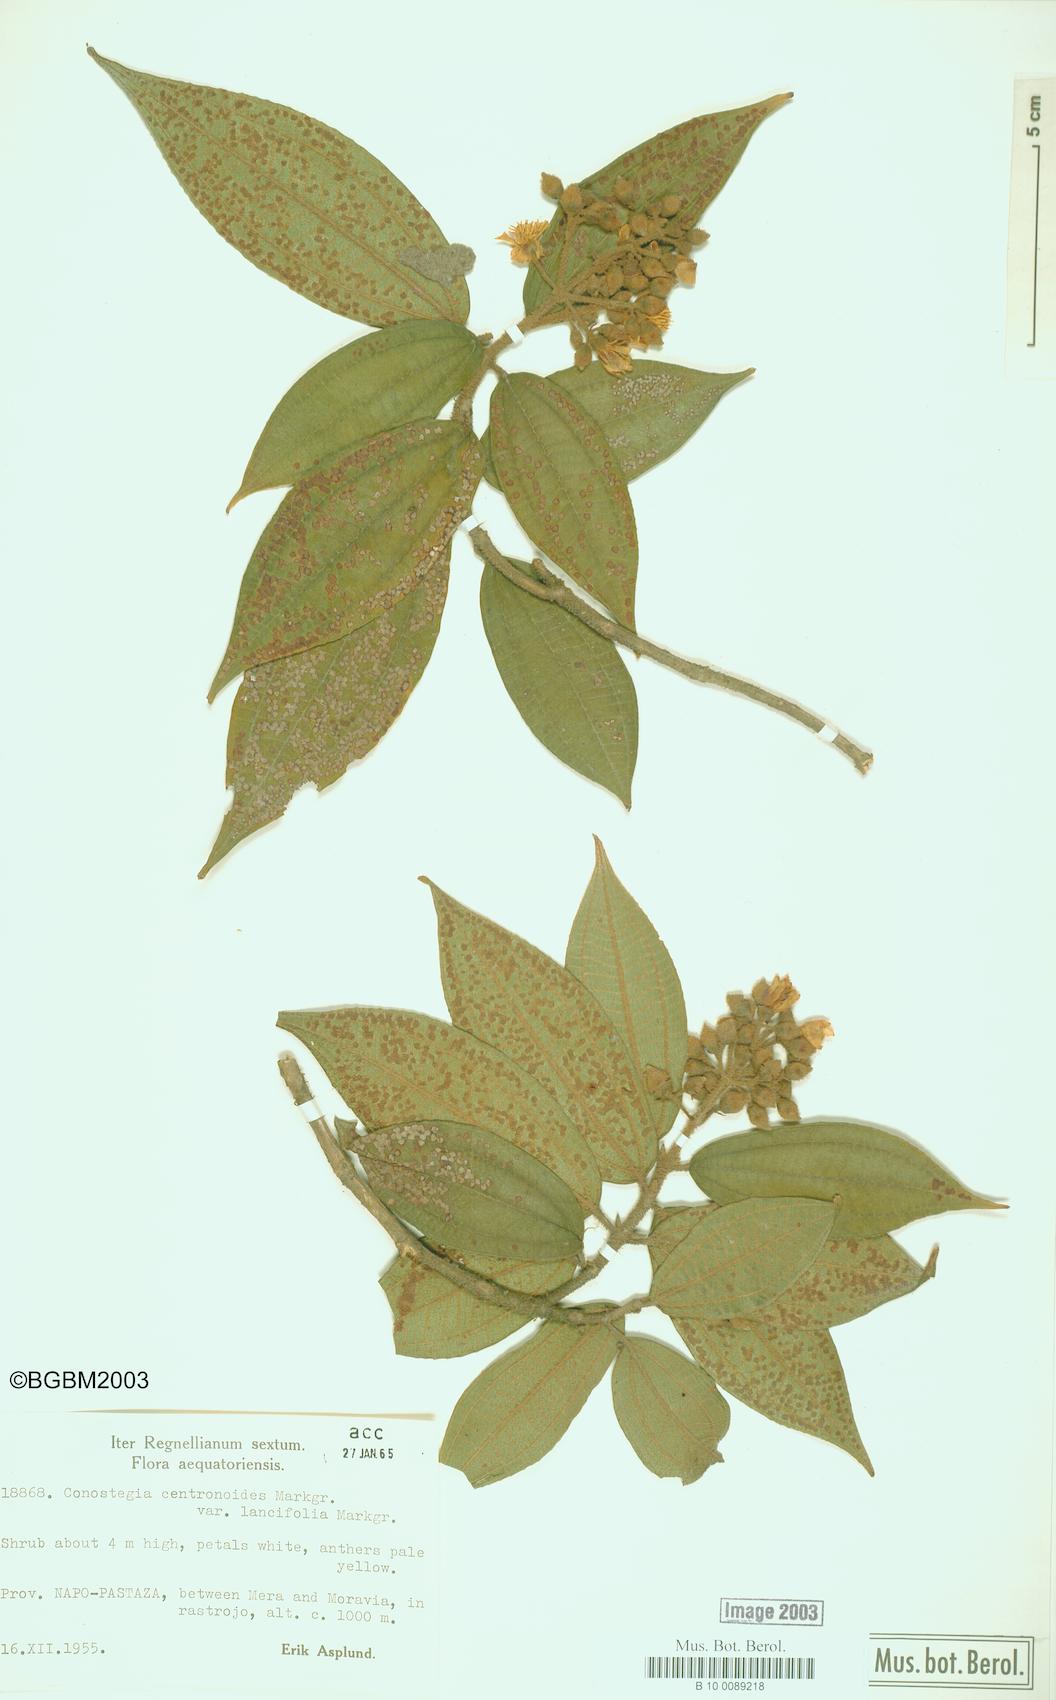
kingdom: Plantae
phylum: Tracheophyta
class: Magnoliopsida
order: Myrtales
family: Melastomataceae
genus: Miconia
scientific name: Miconia conocentronioides
